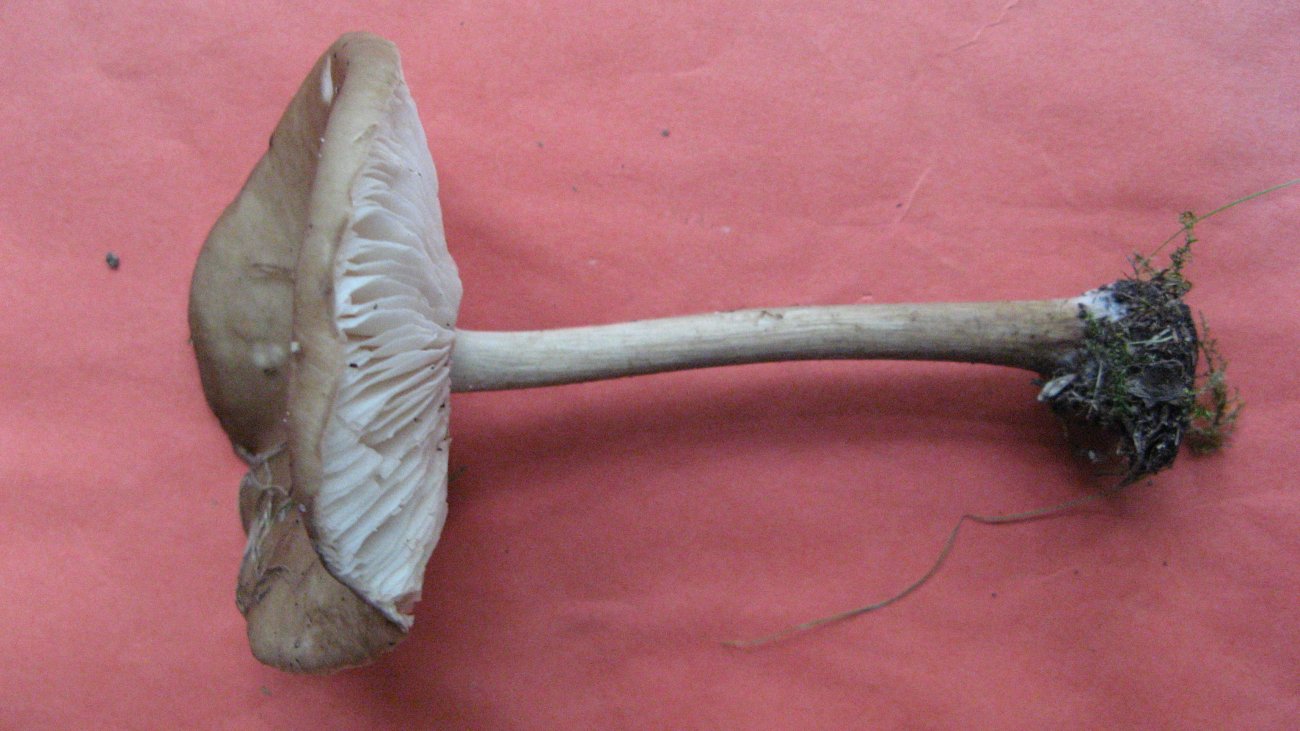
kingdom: Fungi
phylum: Basidiomycota
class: Agaricomycetes
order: Agaricales
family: Tricholomataceae
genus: Melanoleuca
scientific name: Melanoleuca polioleuca
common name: almindelig munkehat
